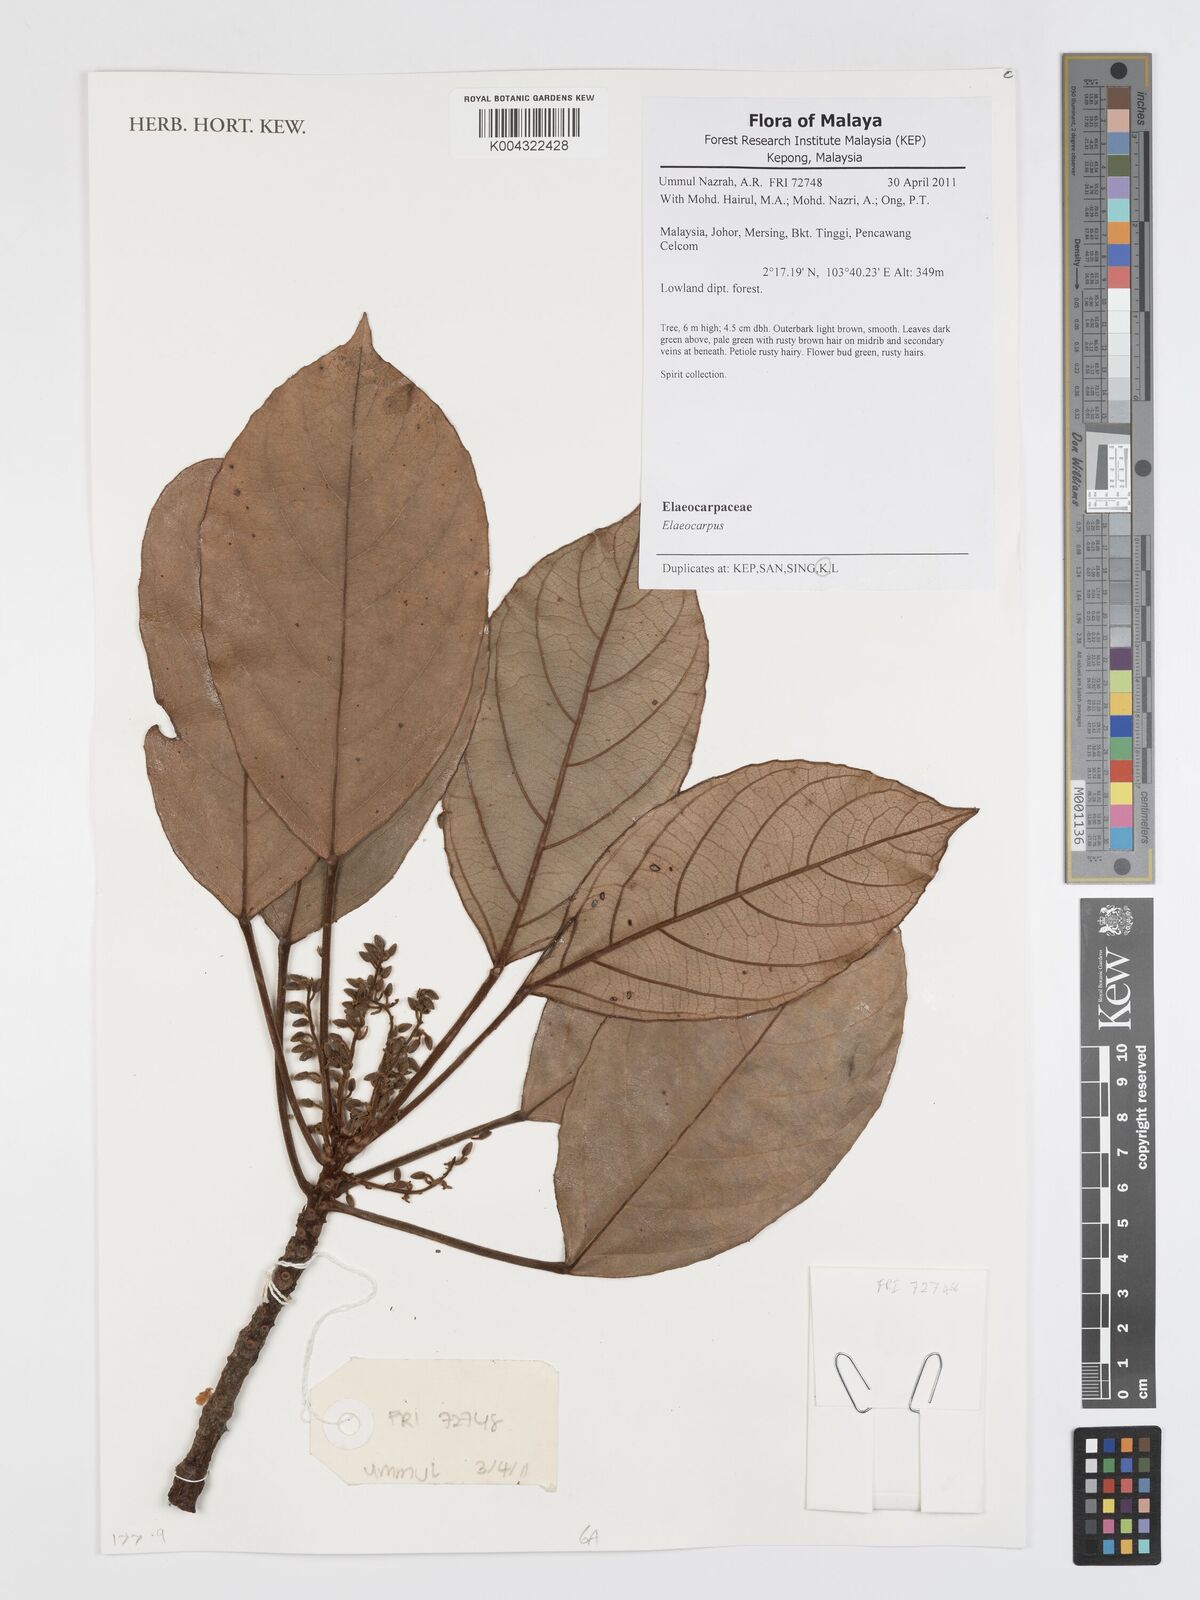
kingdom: Plantae
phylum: Tracheophyta
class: Magnoliopsida
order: Oxalidales
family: Elaeocarpaceae
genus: Elaeocarpus
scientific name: Elaeocarpus
